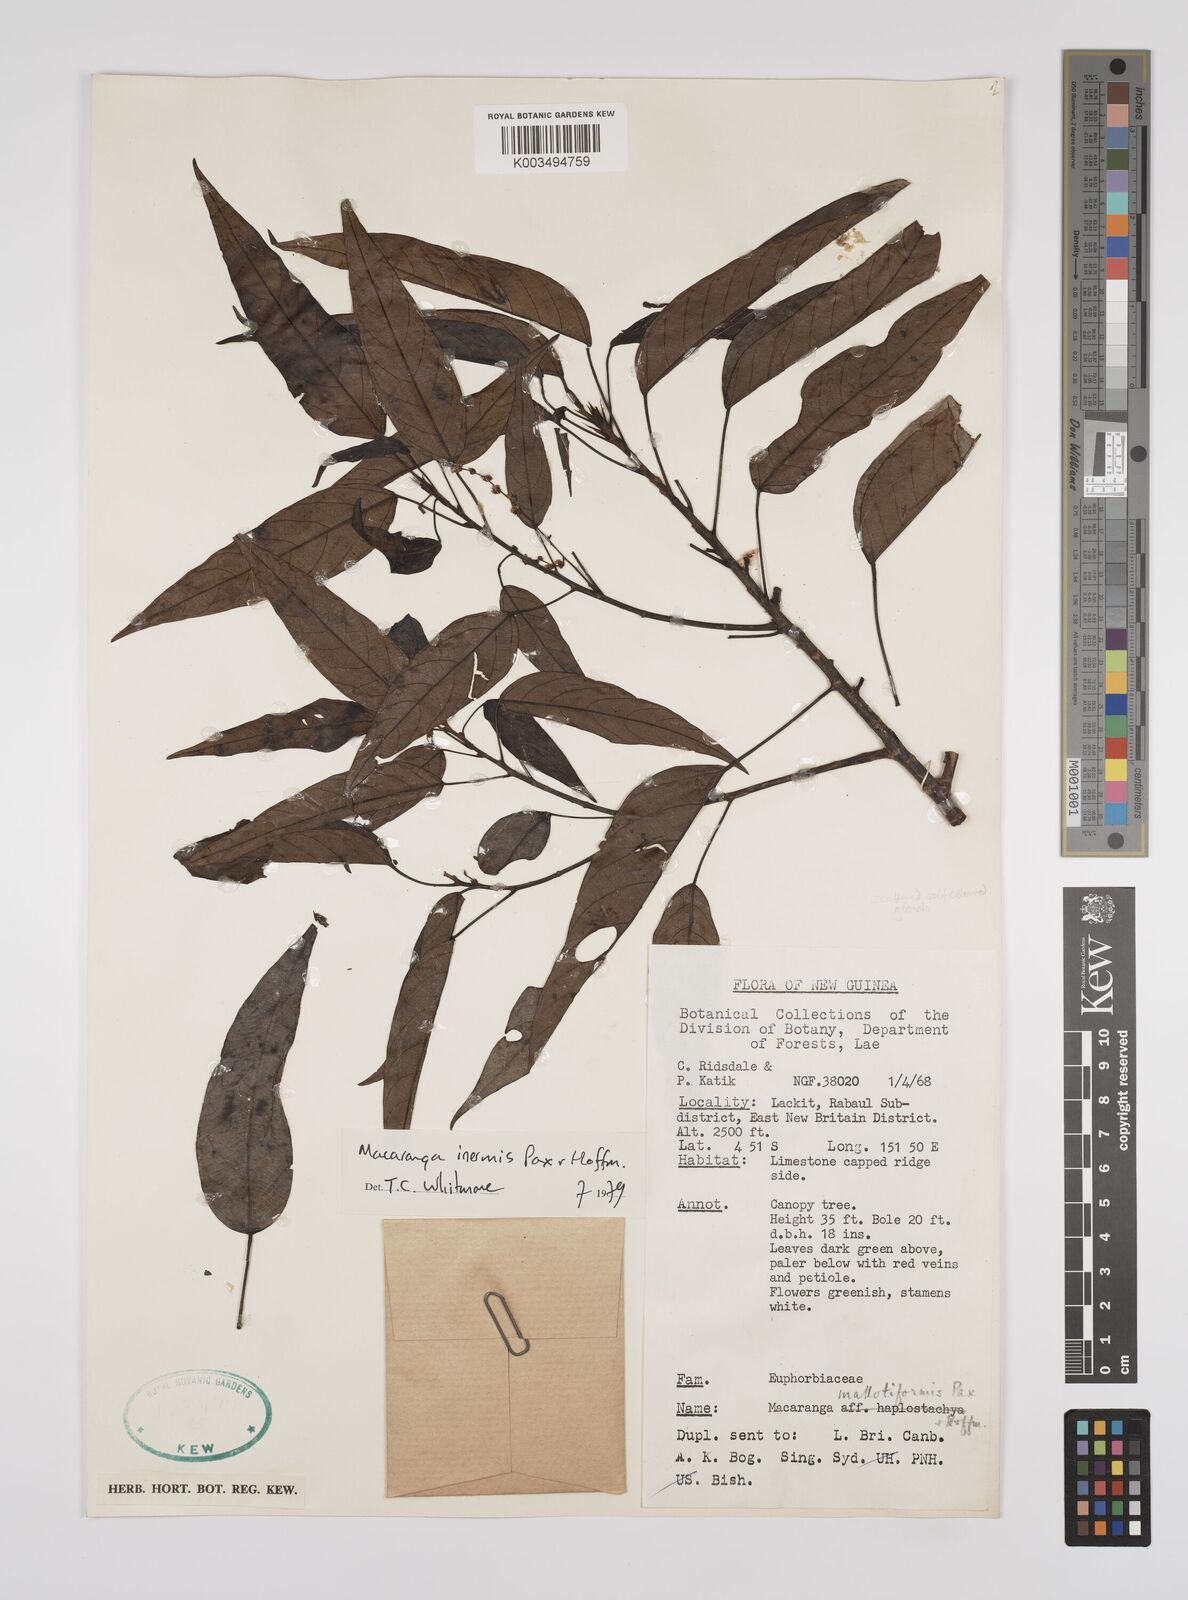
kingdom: Plantae
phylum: Tracheophyta
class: Magnoliopsida
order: Malpighiales
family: Euphorbiaceae
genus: Macaranga
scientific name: Macaranga inermis
